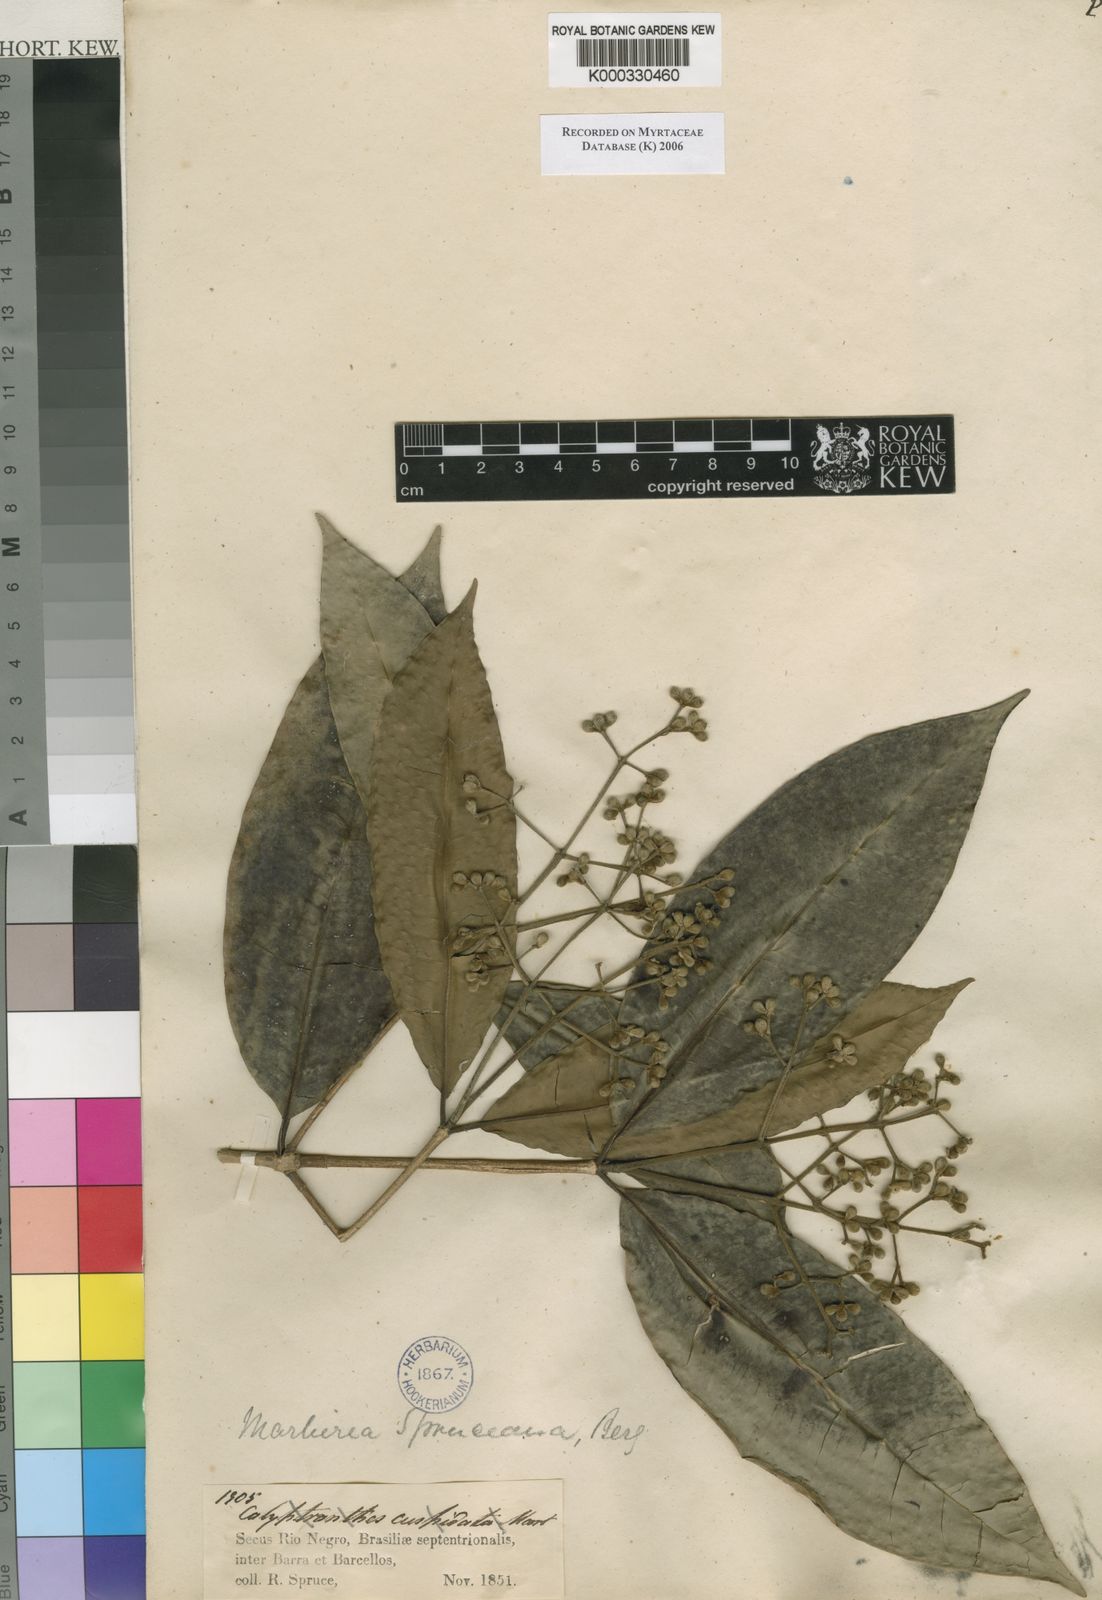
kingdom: Plantae
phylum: Tracheophyta
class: Magnoliopsida
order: Myrtales
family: Myrtaceae
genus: Myrcia
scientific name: Myrcia argentigemma
